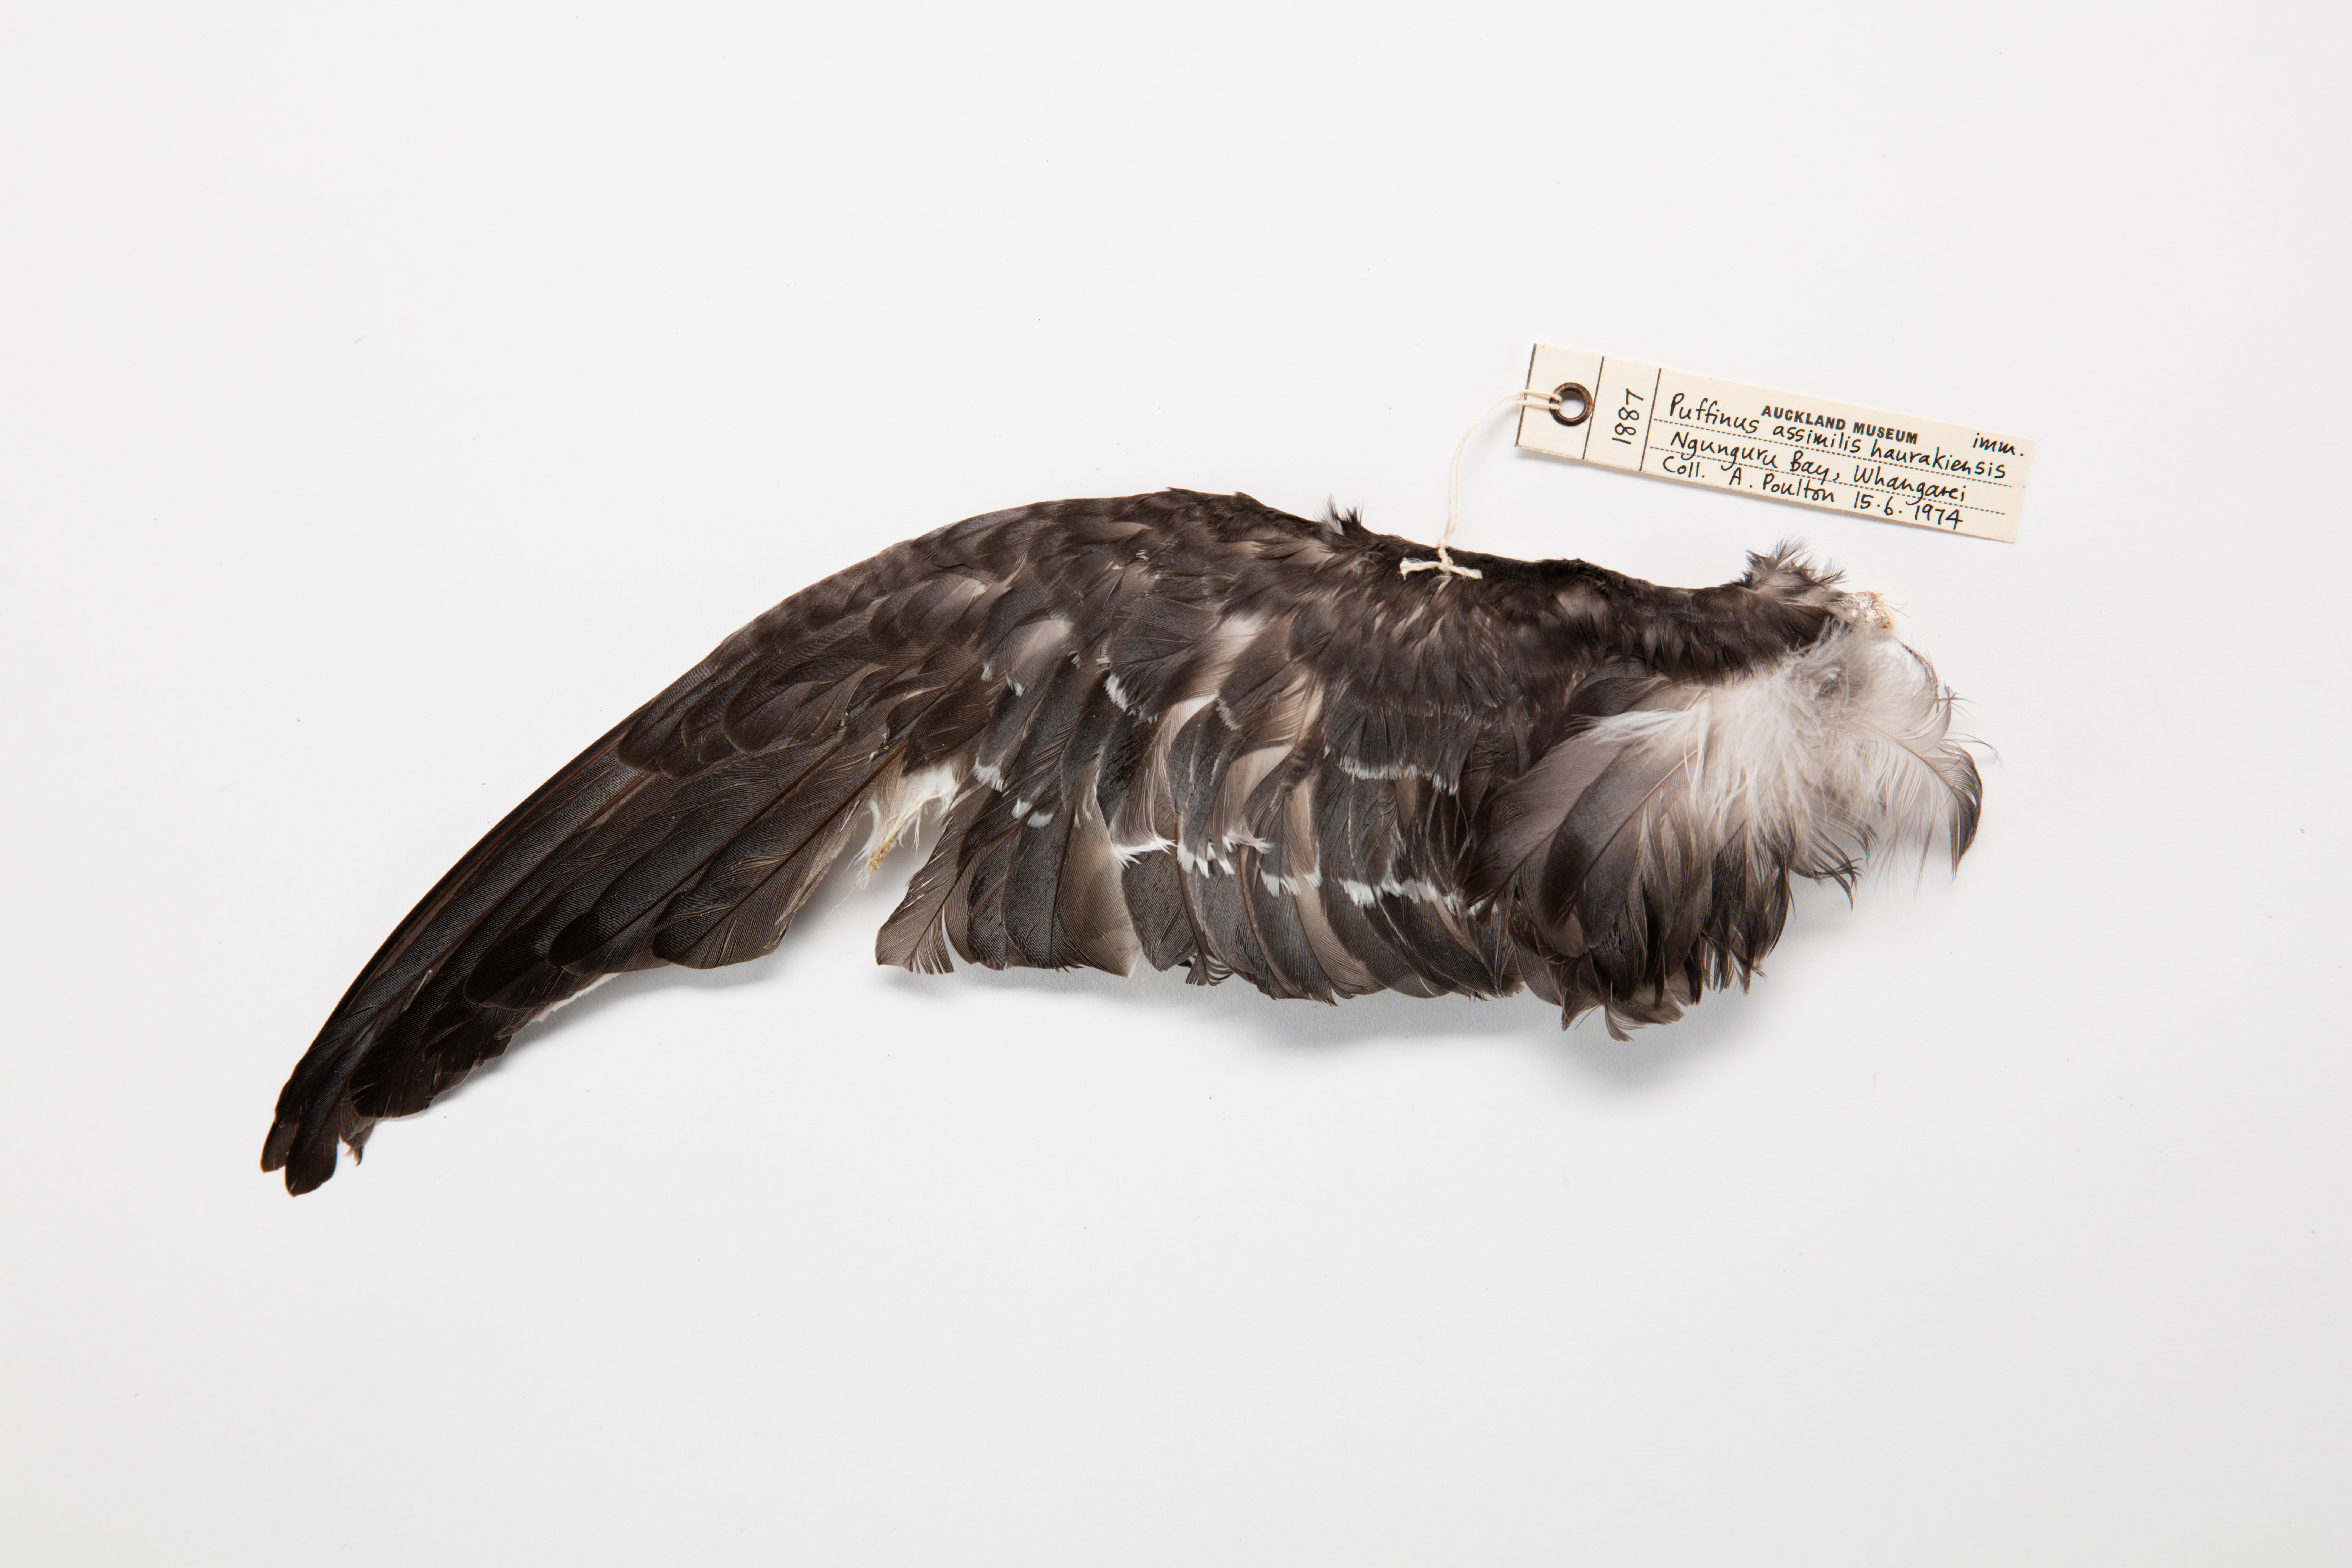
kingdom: Animalia
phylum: Chordata
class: Aves
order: Procellariiformes
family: Procellariidae
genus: Puffinus
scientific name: Puffinus assimilis
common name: Little shearwater
